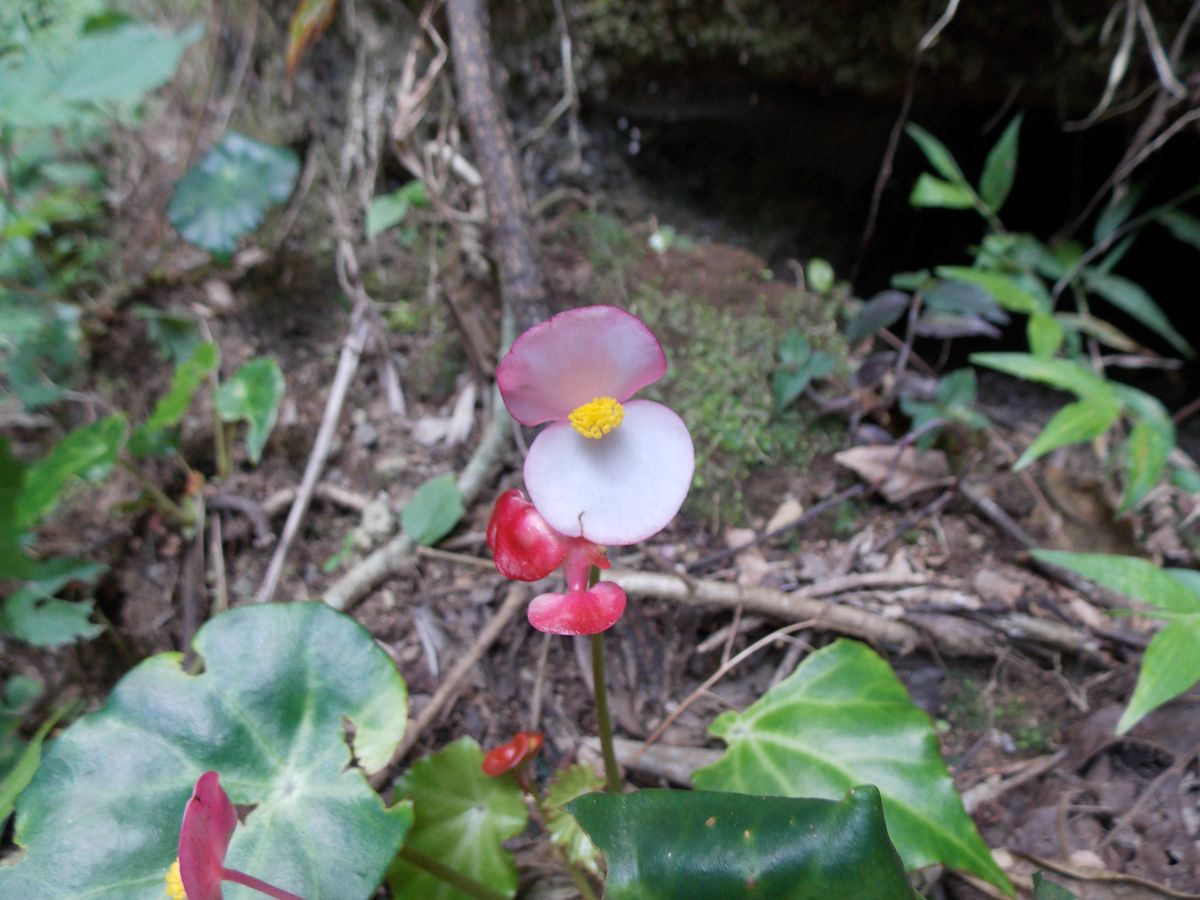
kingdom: Plantae
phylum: Tracheophyta
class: Magnoliopsida
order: Cucurbitales
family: Begoniaceae
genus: Begonia
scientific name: Begonia plebeja
